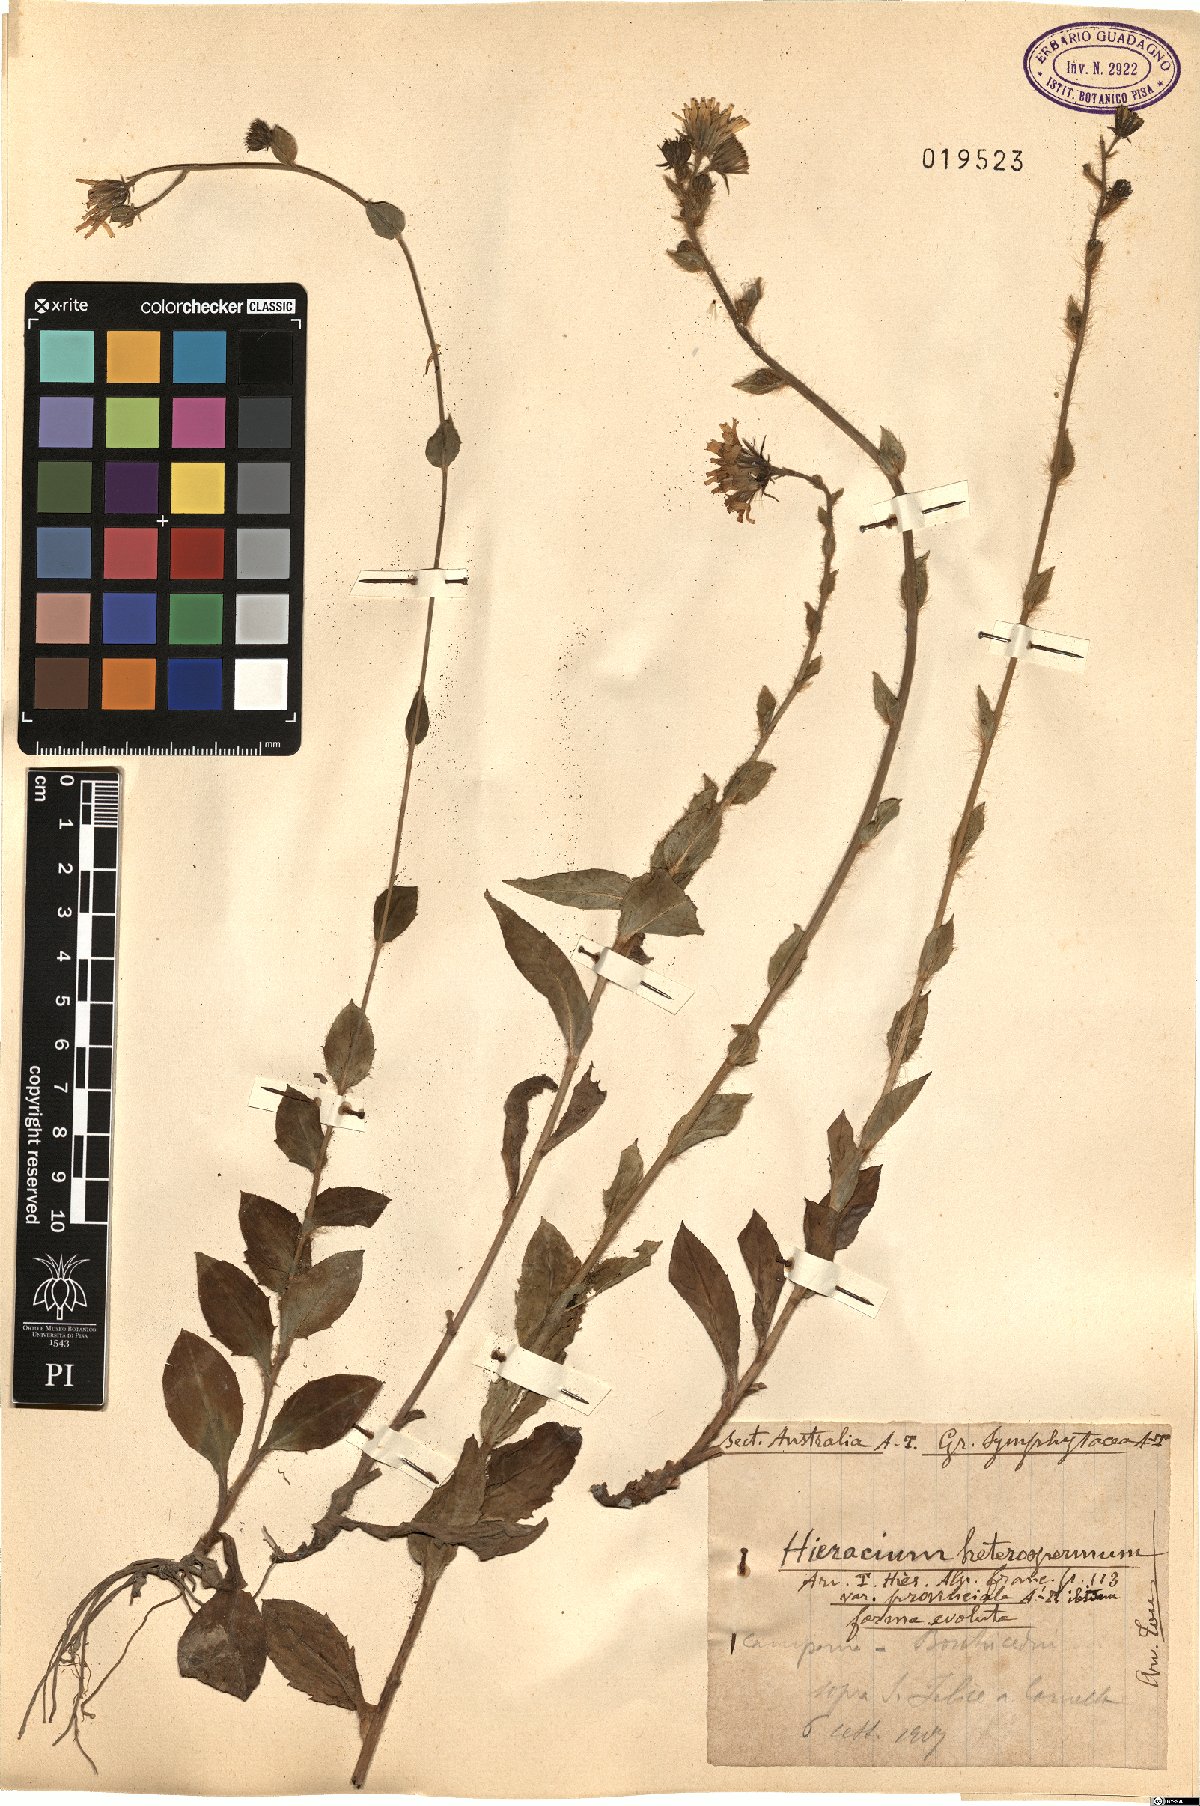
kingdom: Plantae
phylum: Tracheophyta
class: Magnoliopsida
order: Asterales
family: Asteraceae
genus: Hieracium
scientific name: Hieracium racemosum
